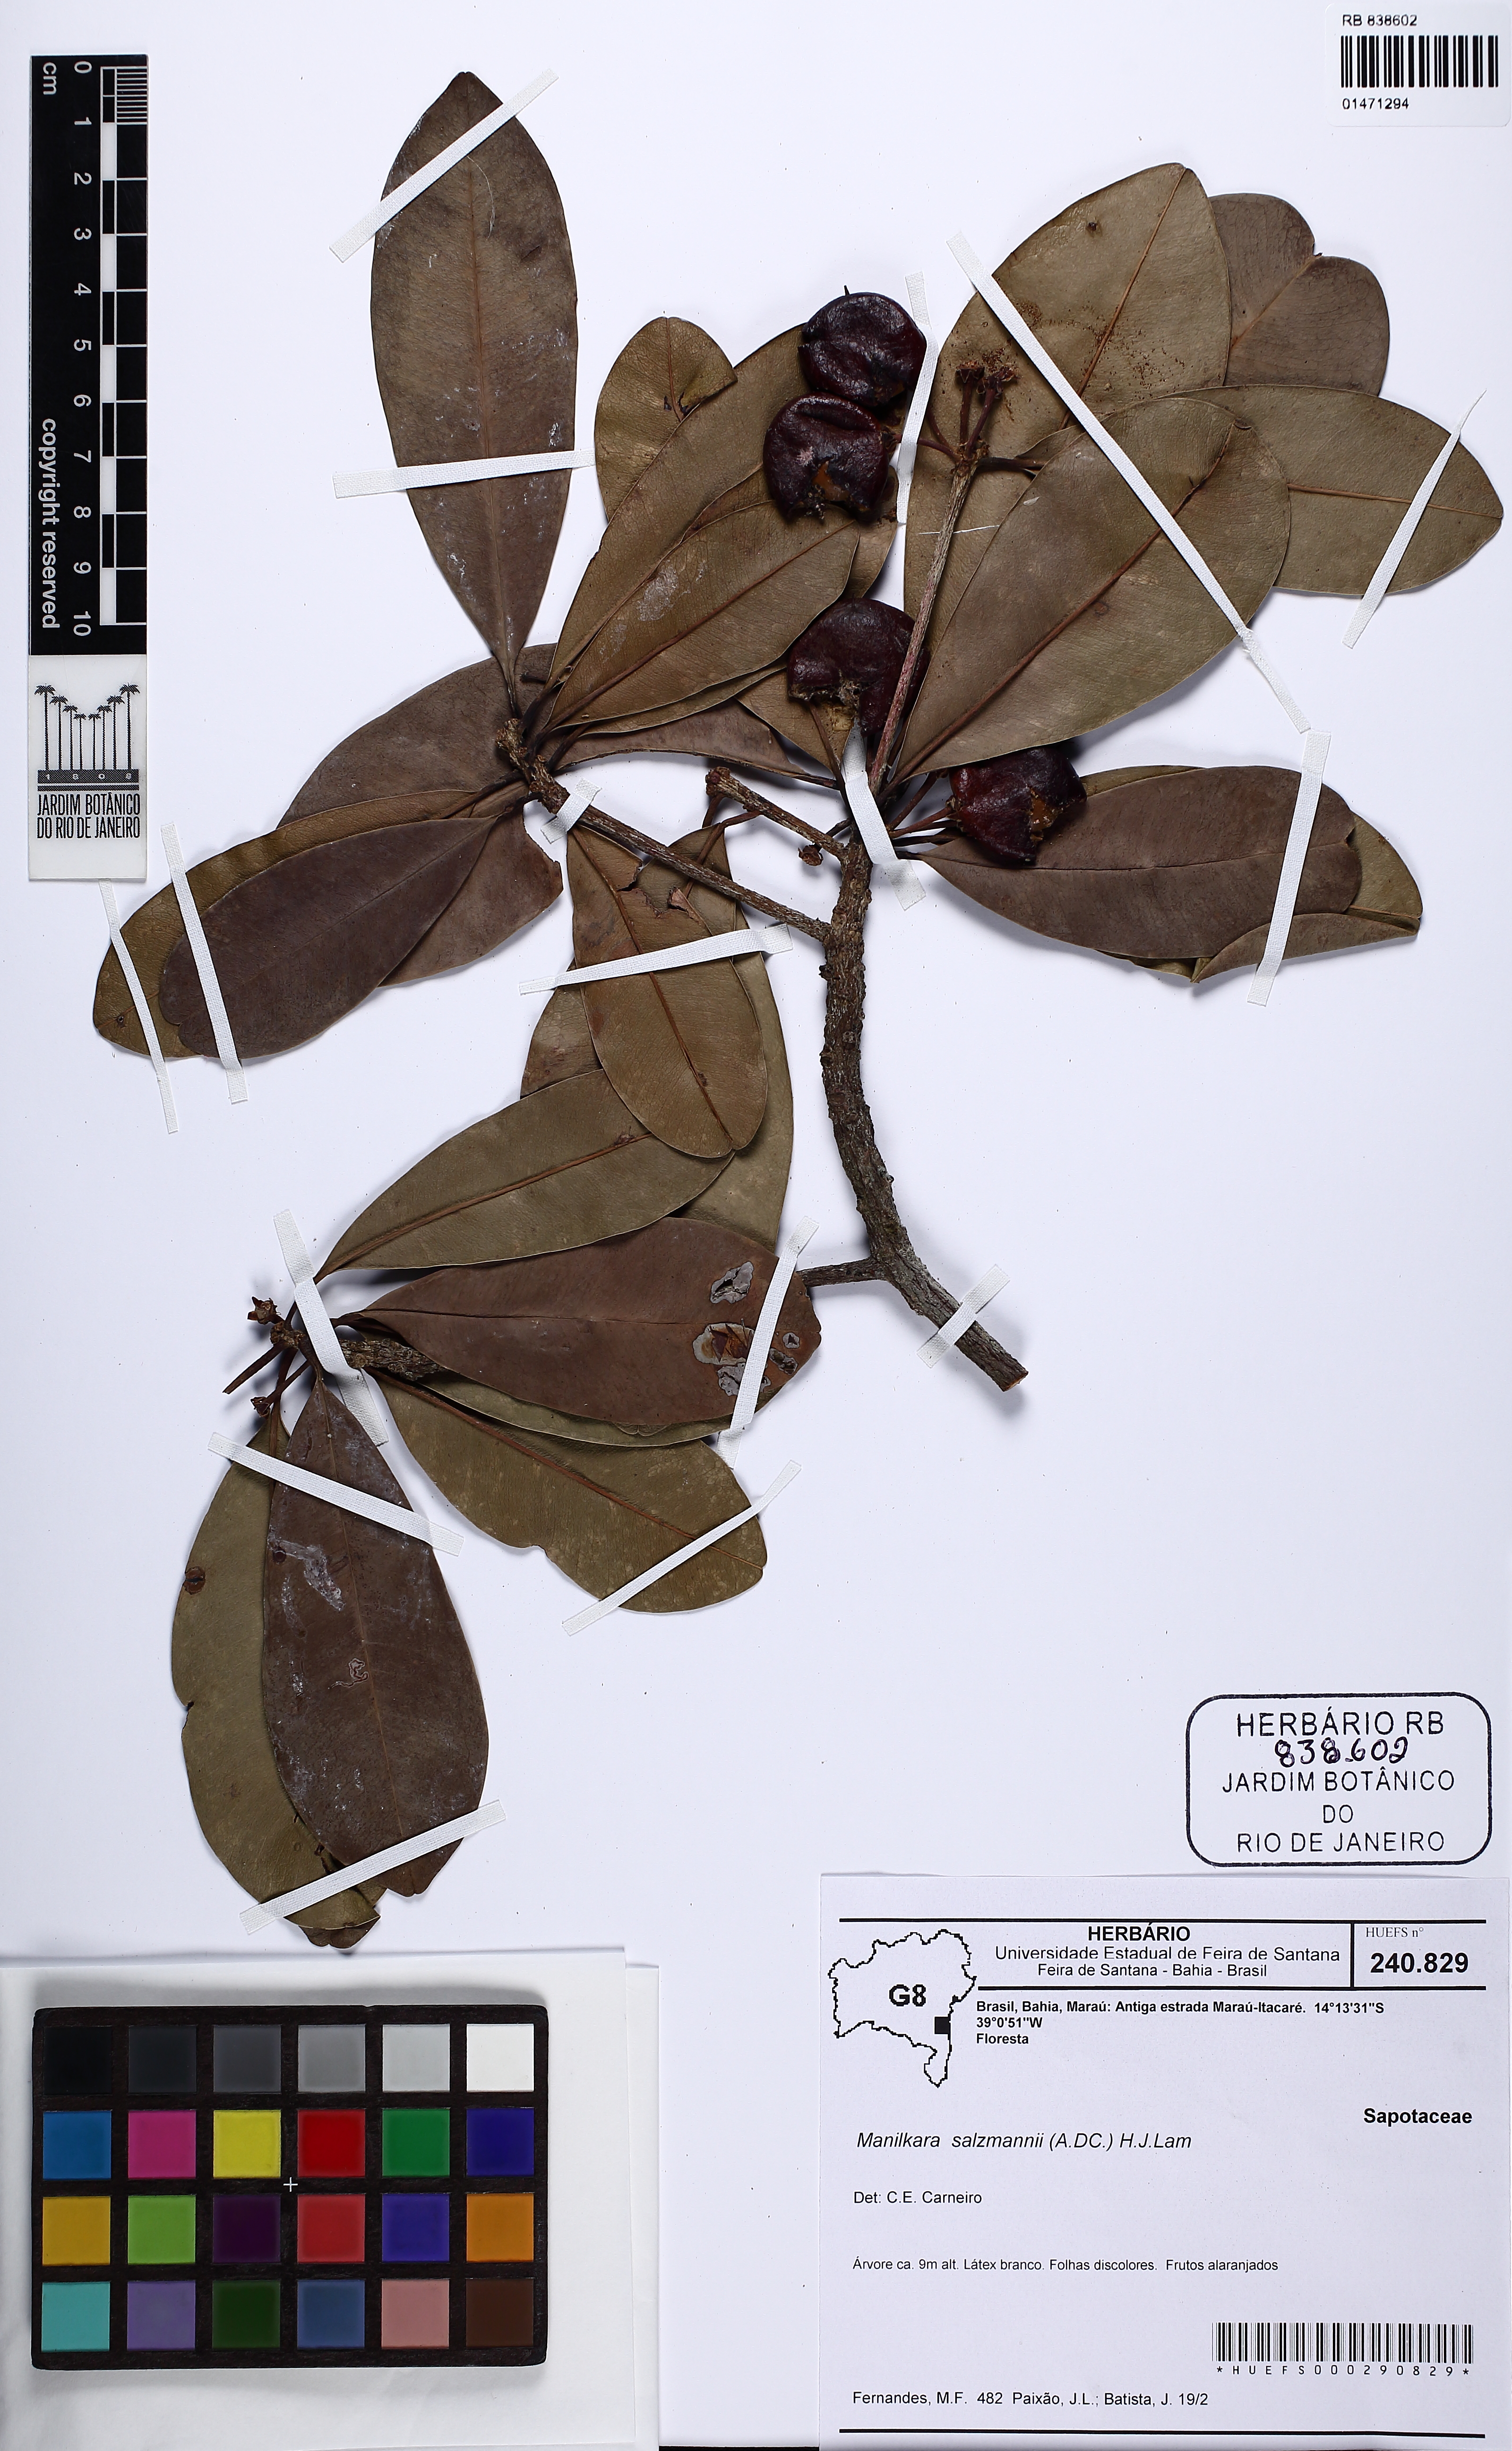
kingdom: Plantae
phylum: Tracheophyta
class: Magnoliopsida
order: Ericales
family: Sapotaceae
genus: Manilkara
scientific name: Manilkara salzmannii
